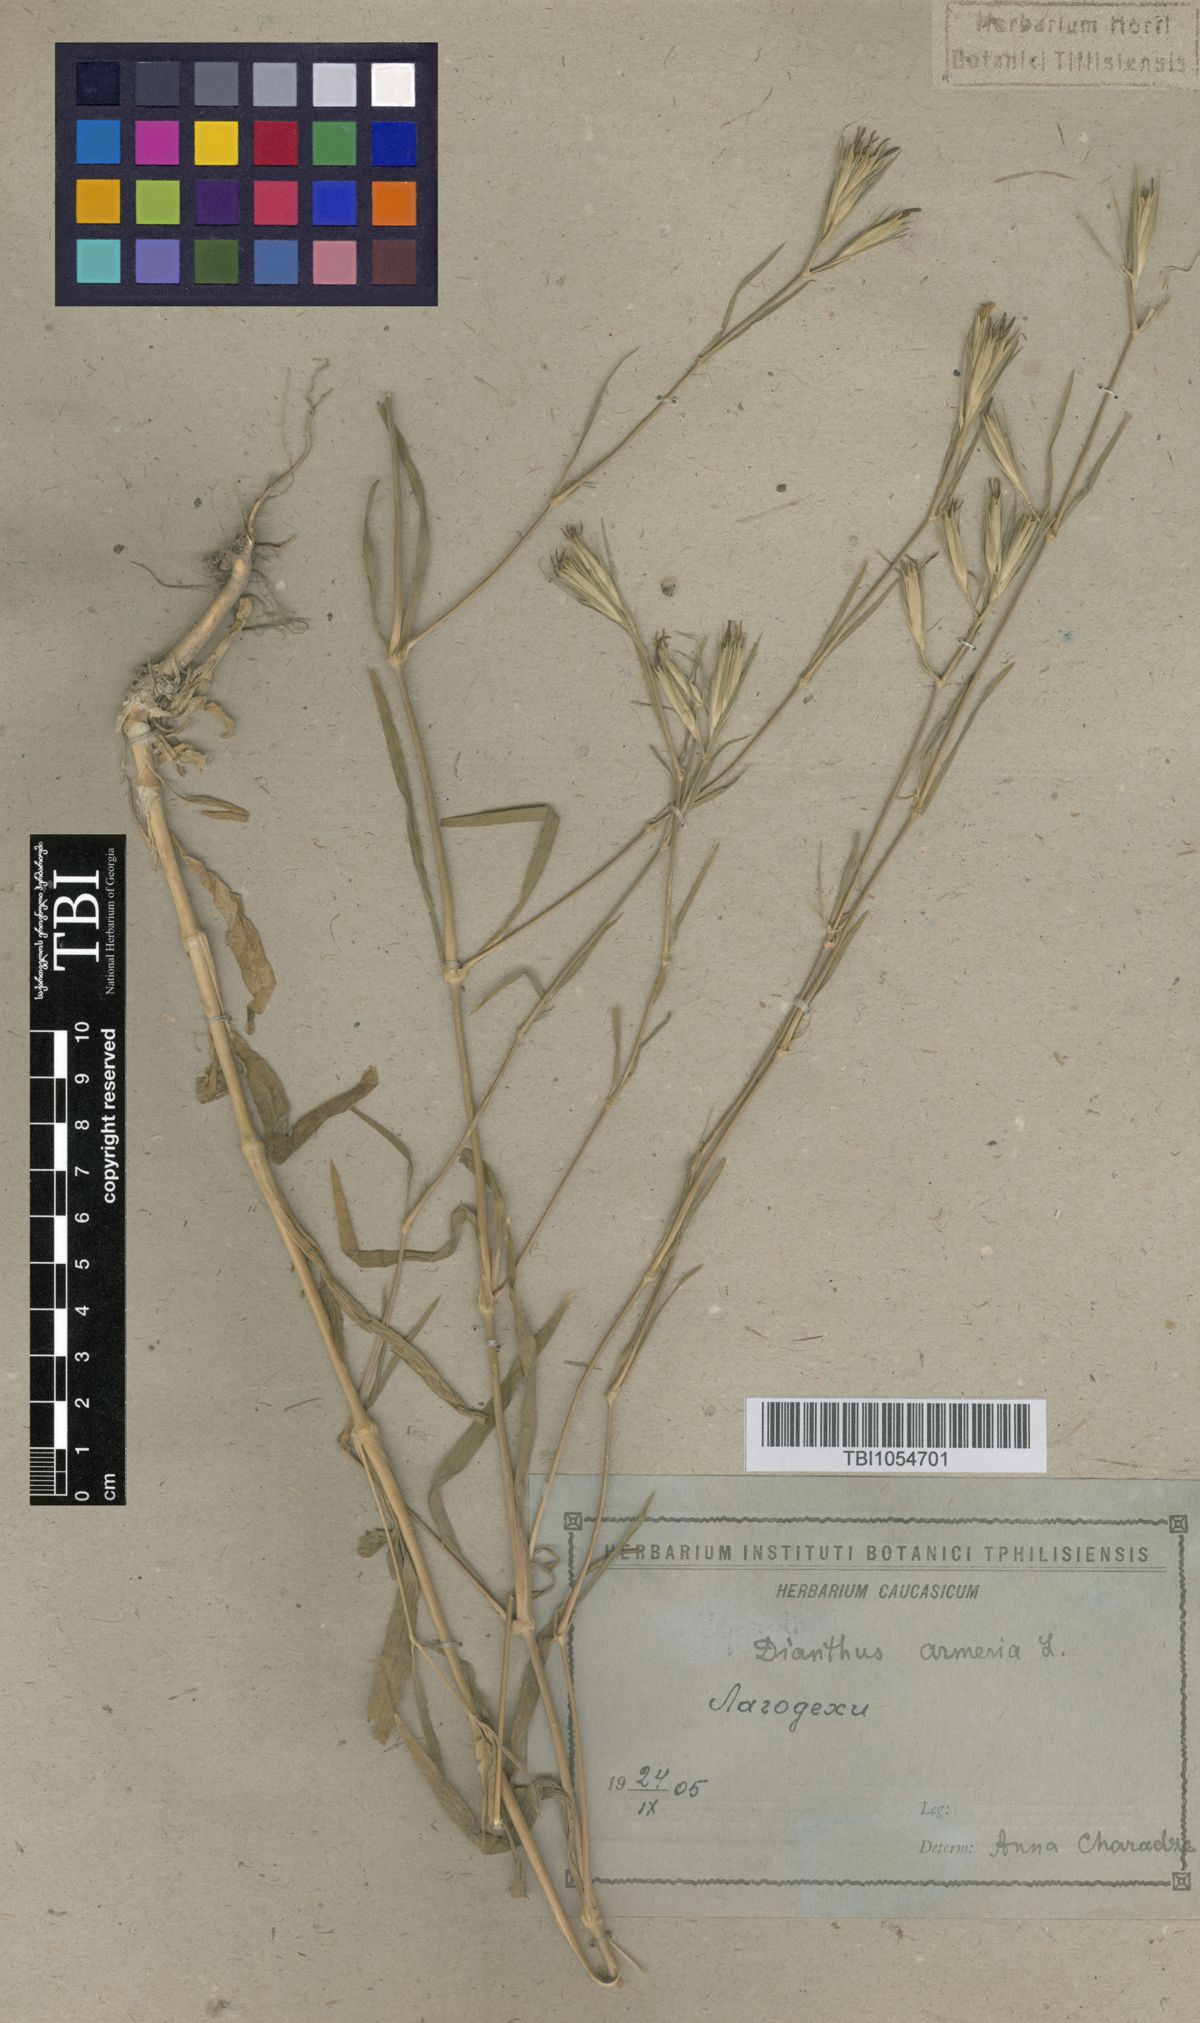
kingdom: Plantae
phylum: Tracheophyta
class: Magnoliopsida
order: Caryophyllales
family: Caryophyllaceae
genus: Dianthus
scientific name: Dianthus armeria
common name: Deptford pink
